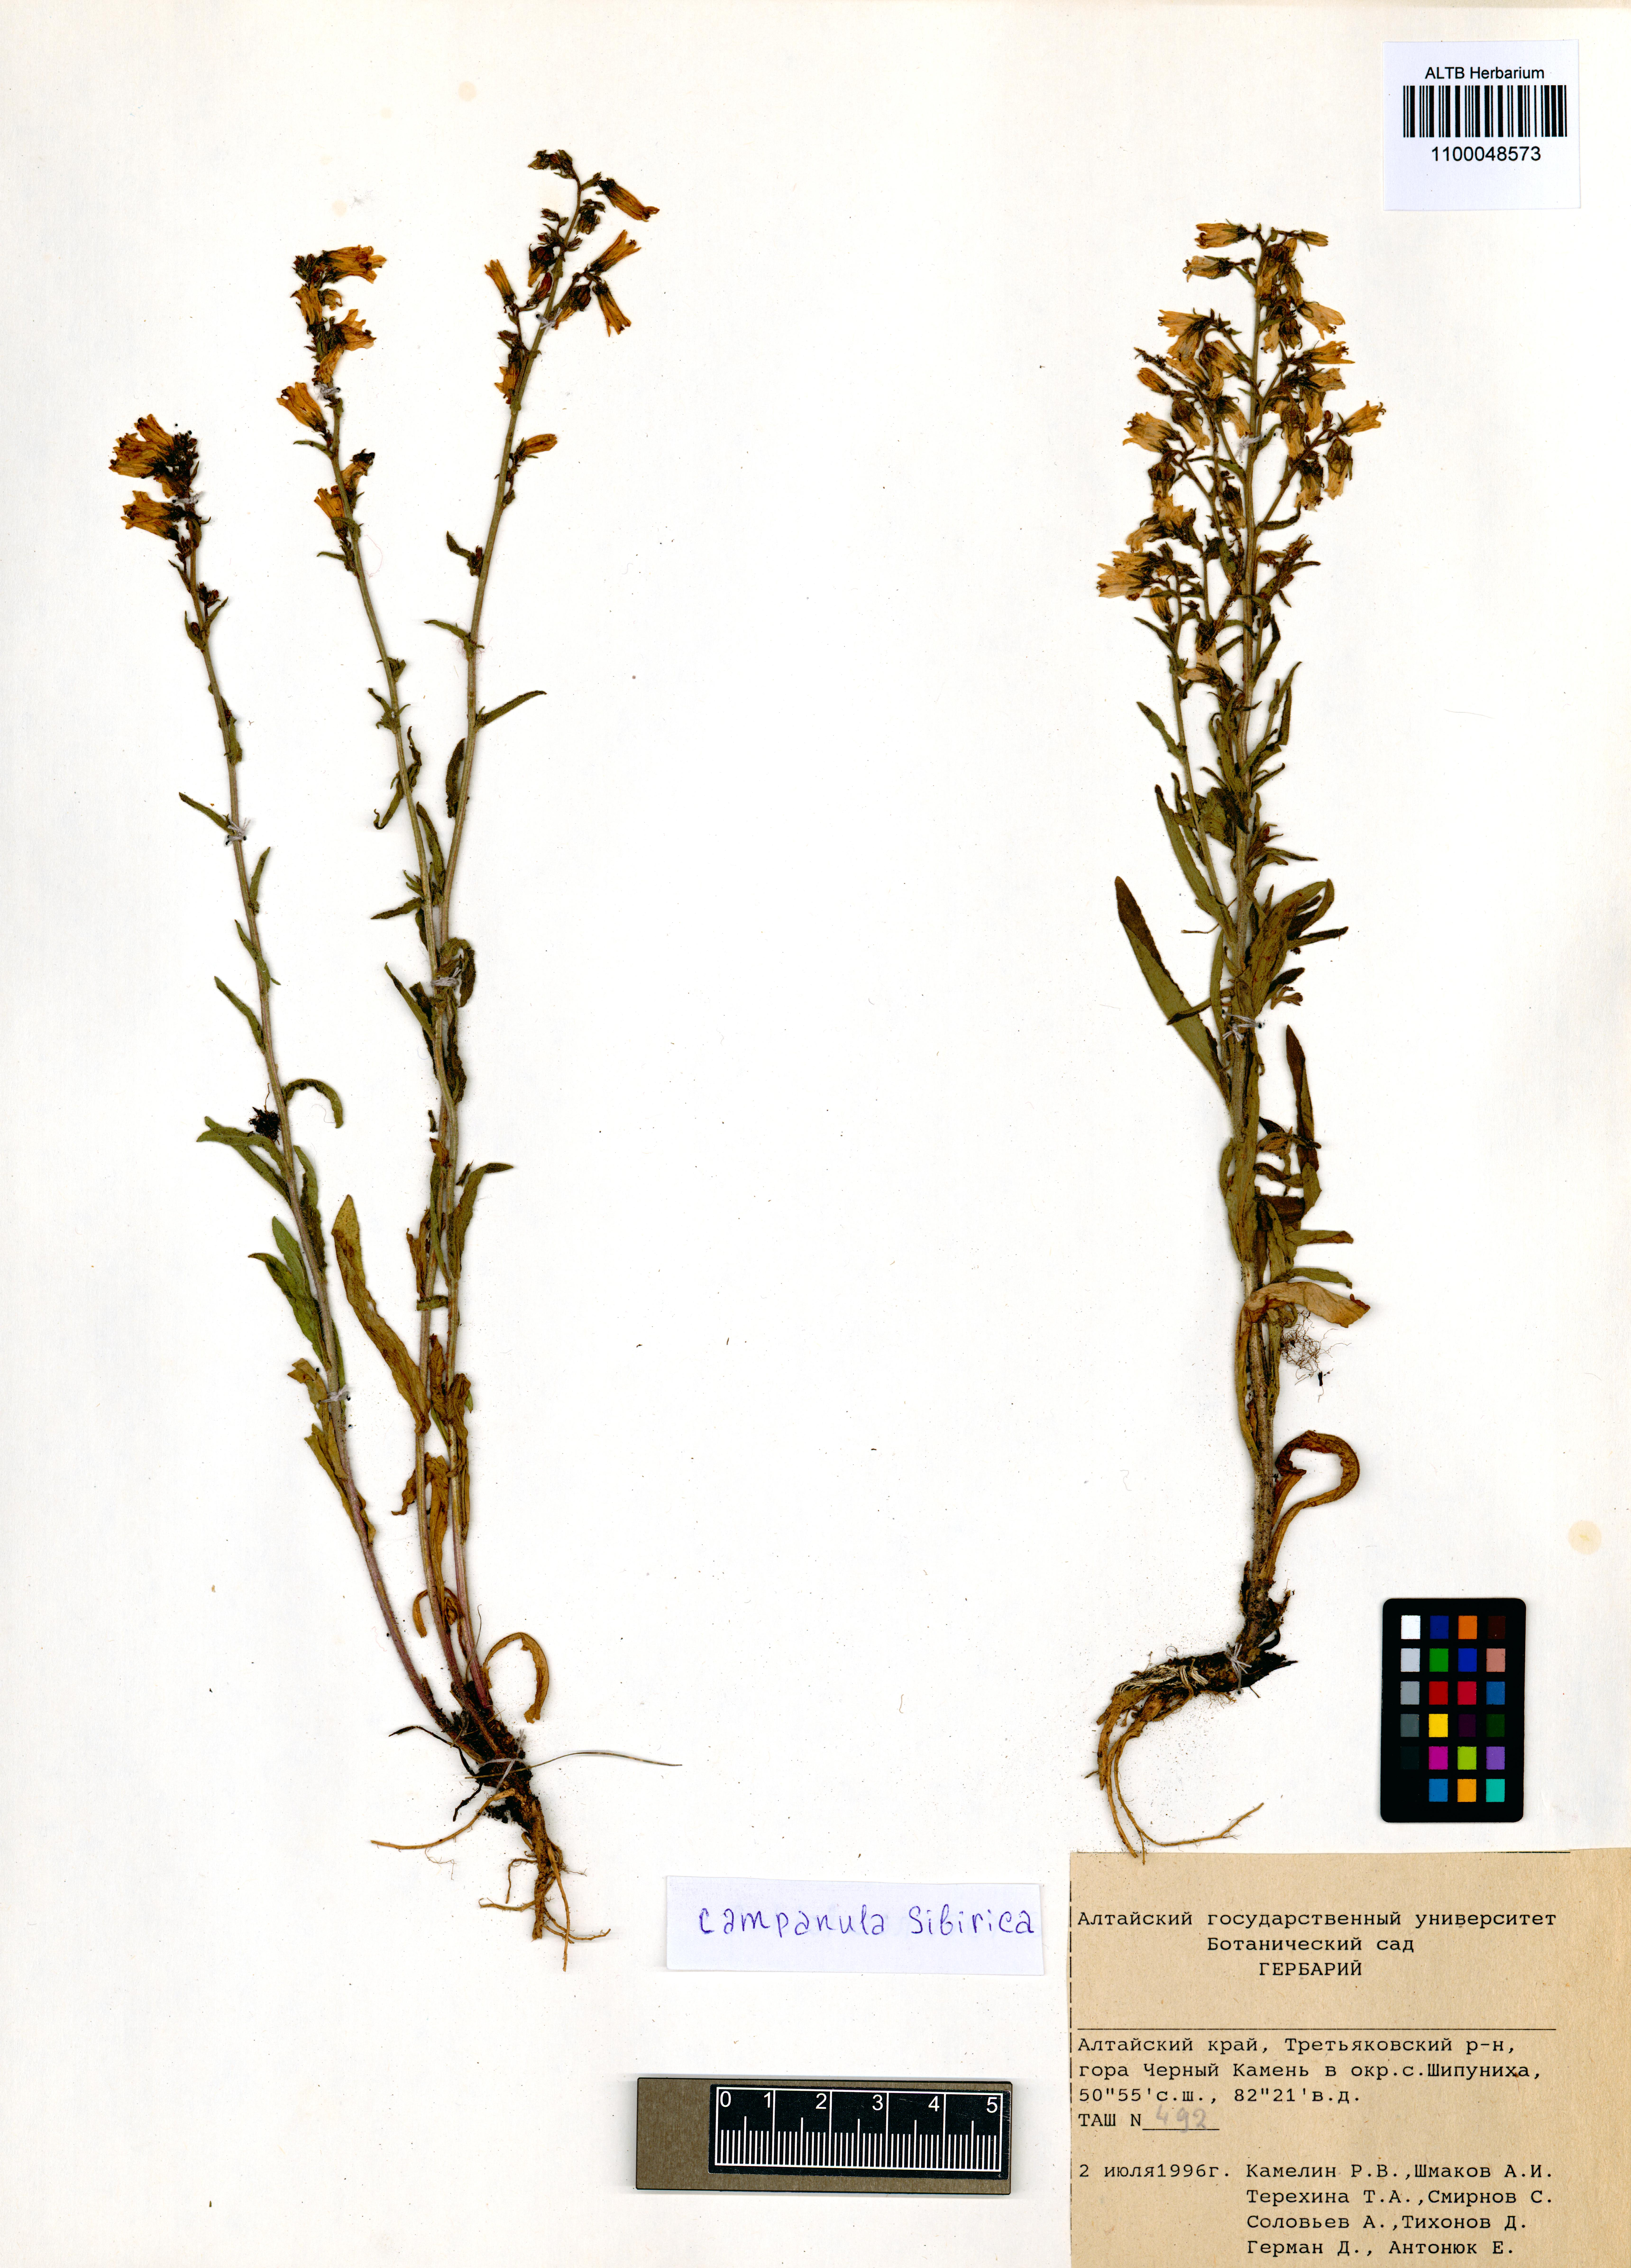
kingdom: Plantae
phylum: Tracheophyta
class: Magnoliopsida
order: Asterales
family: Campanulaceae
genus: Campanula
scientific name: Campanula sibirica
